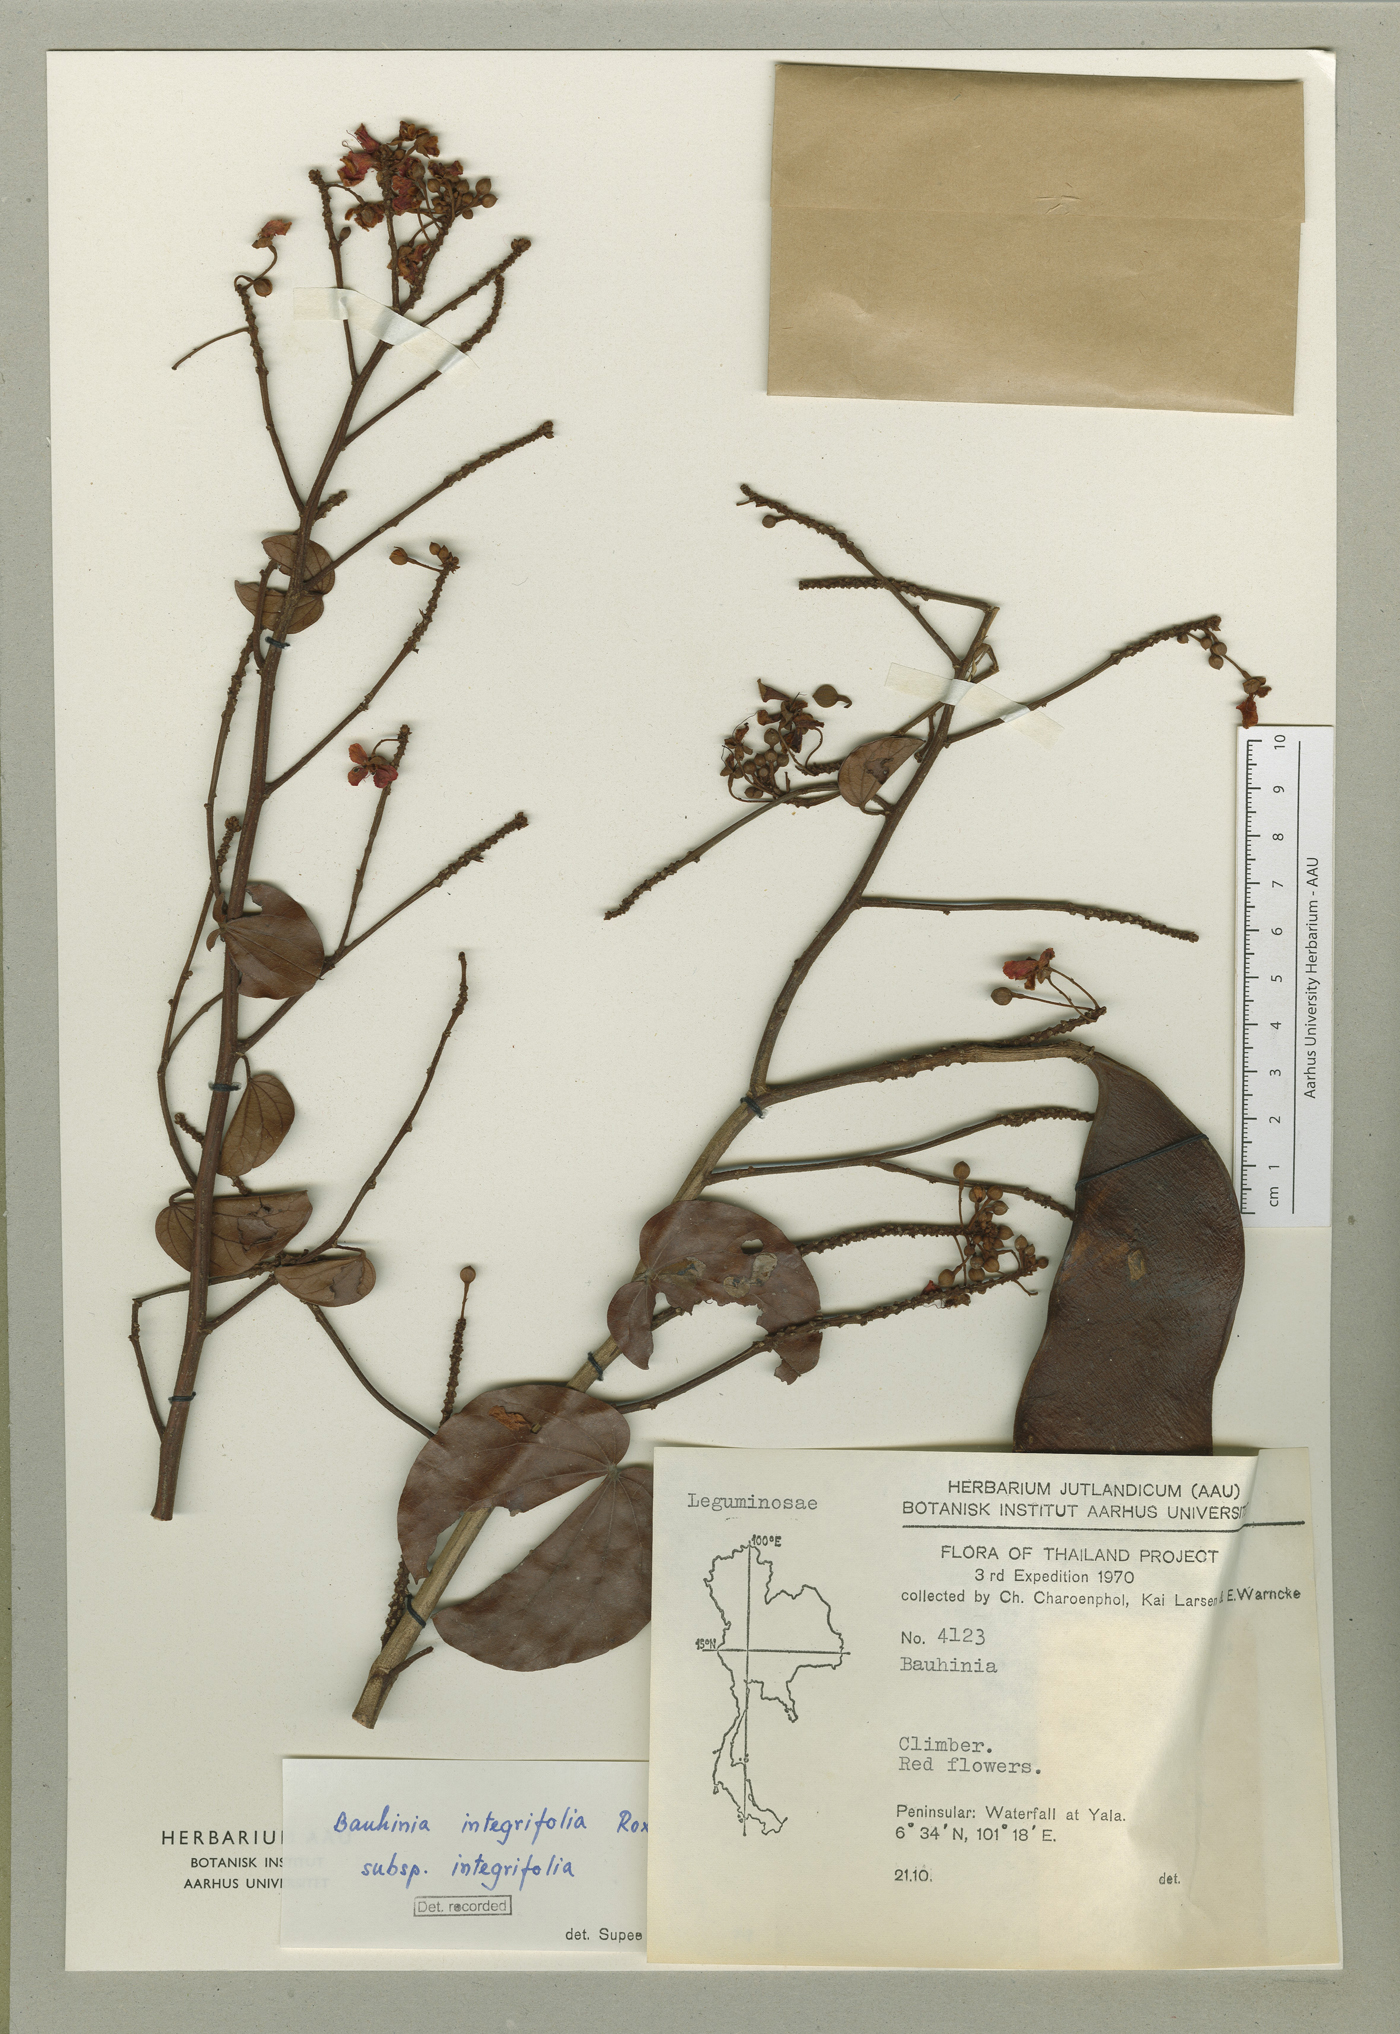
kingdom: Plantae
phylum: Tracheophyta
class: Magnoliopsida
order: Fabales
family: Fabaceae
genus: Phanera
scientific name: Phanera integrifolia
